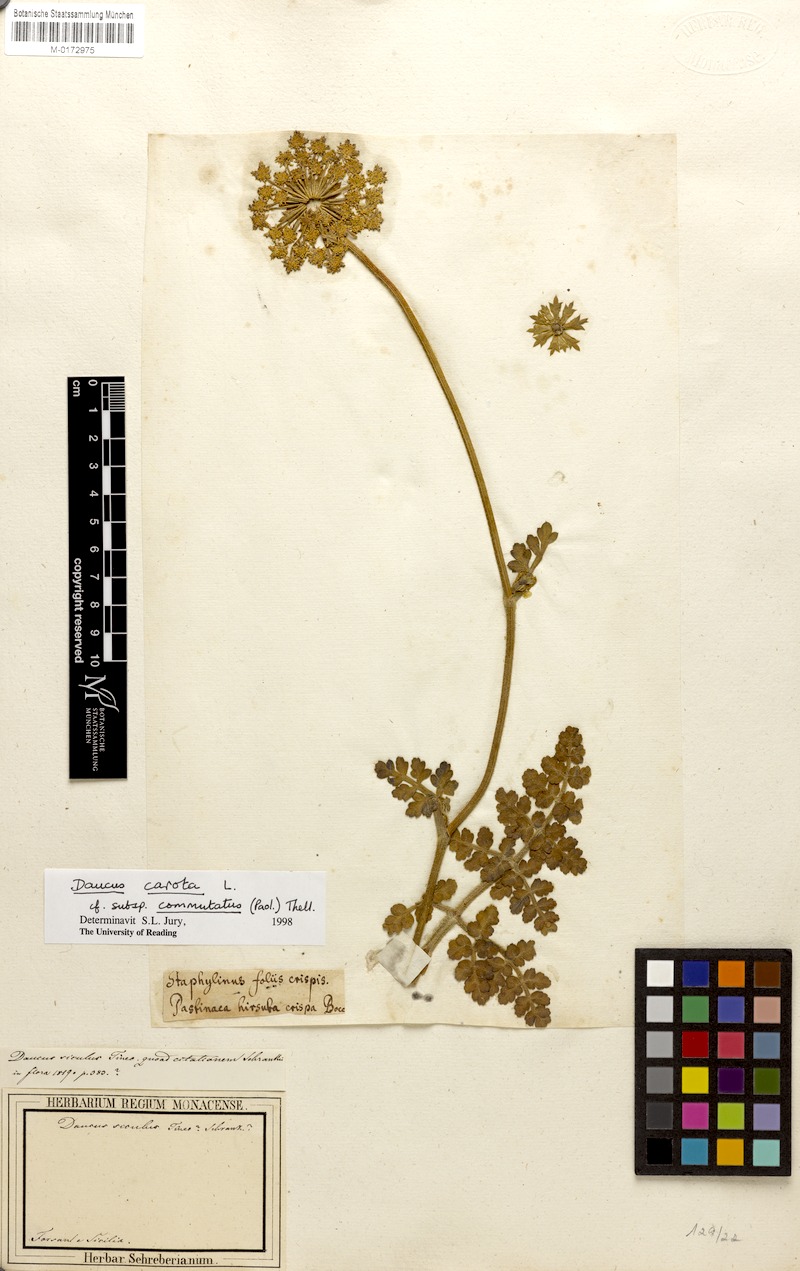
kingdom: Plantae
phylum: Tracheophyta
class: Magnoliopsida
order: Apiales
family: Apiaceae
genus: Daucus
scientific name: Daucus carota
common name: Wild carrot
